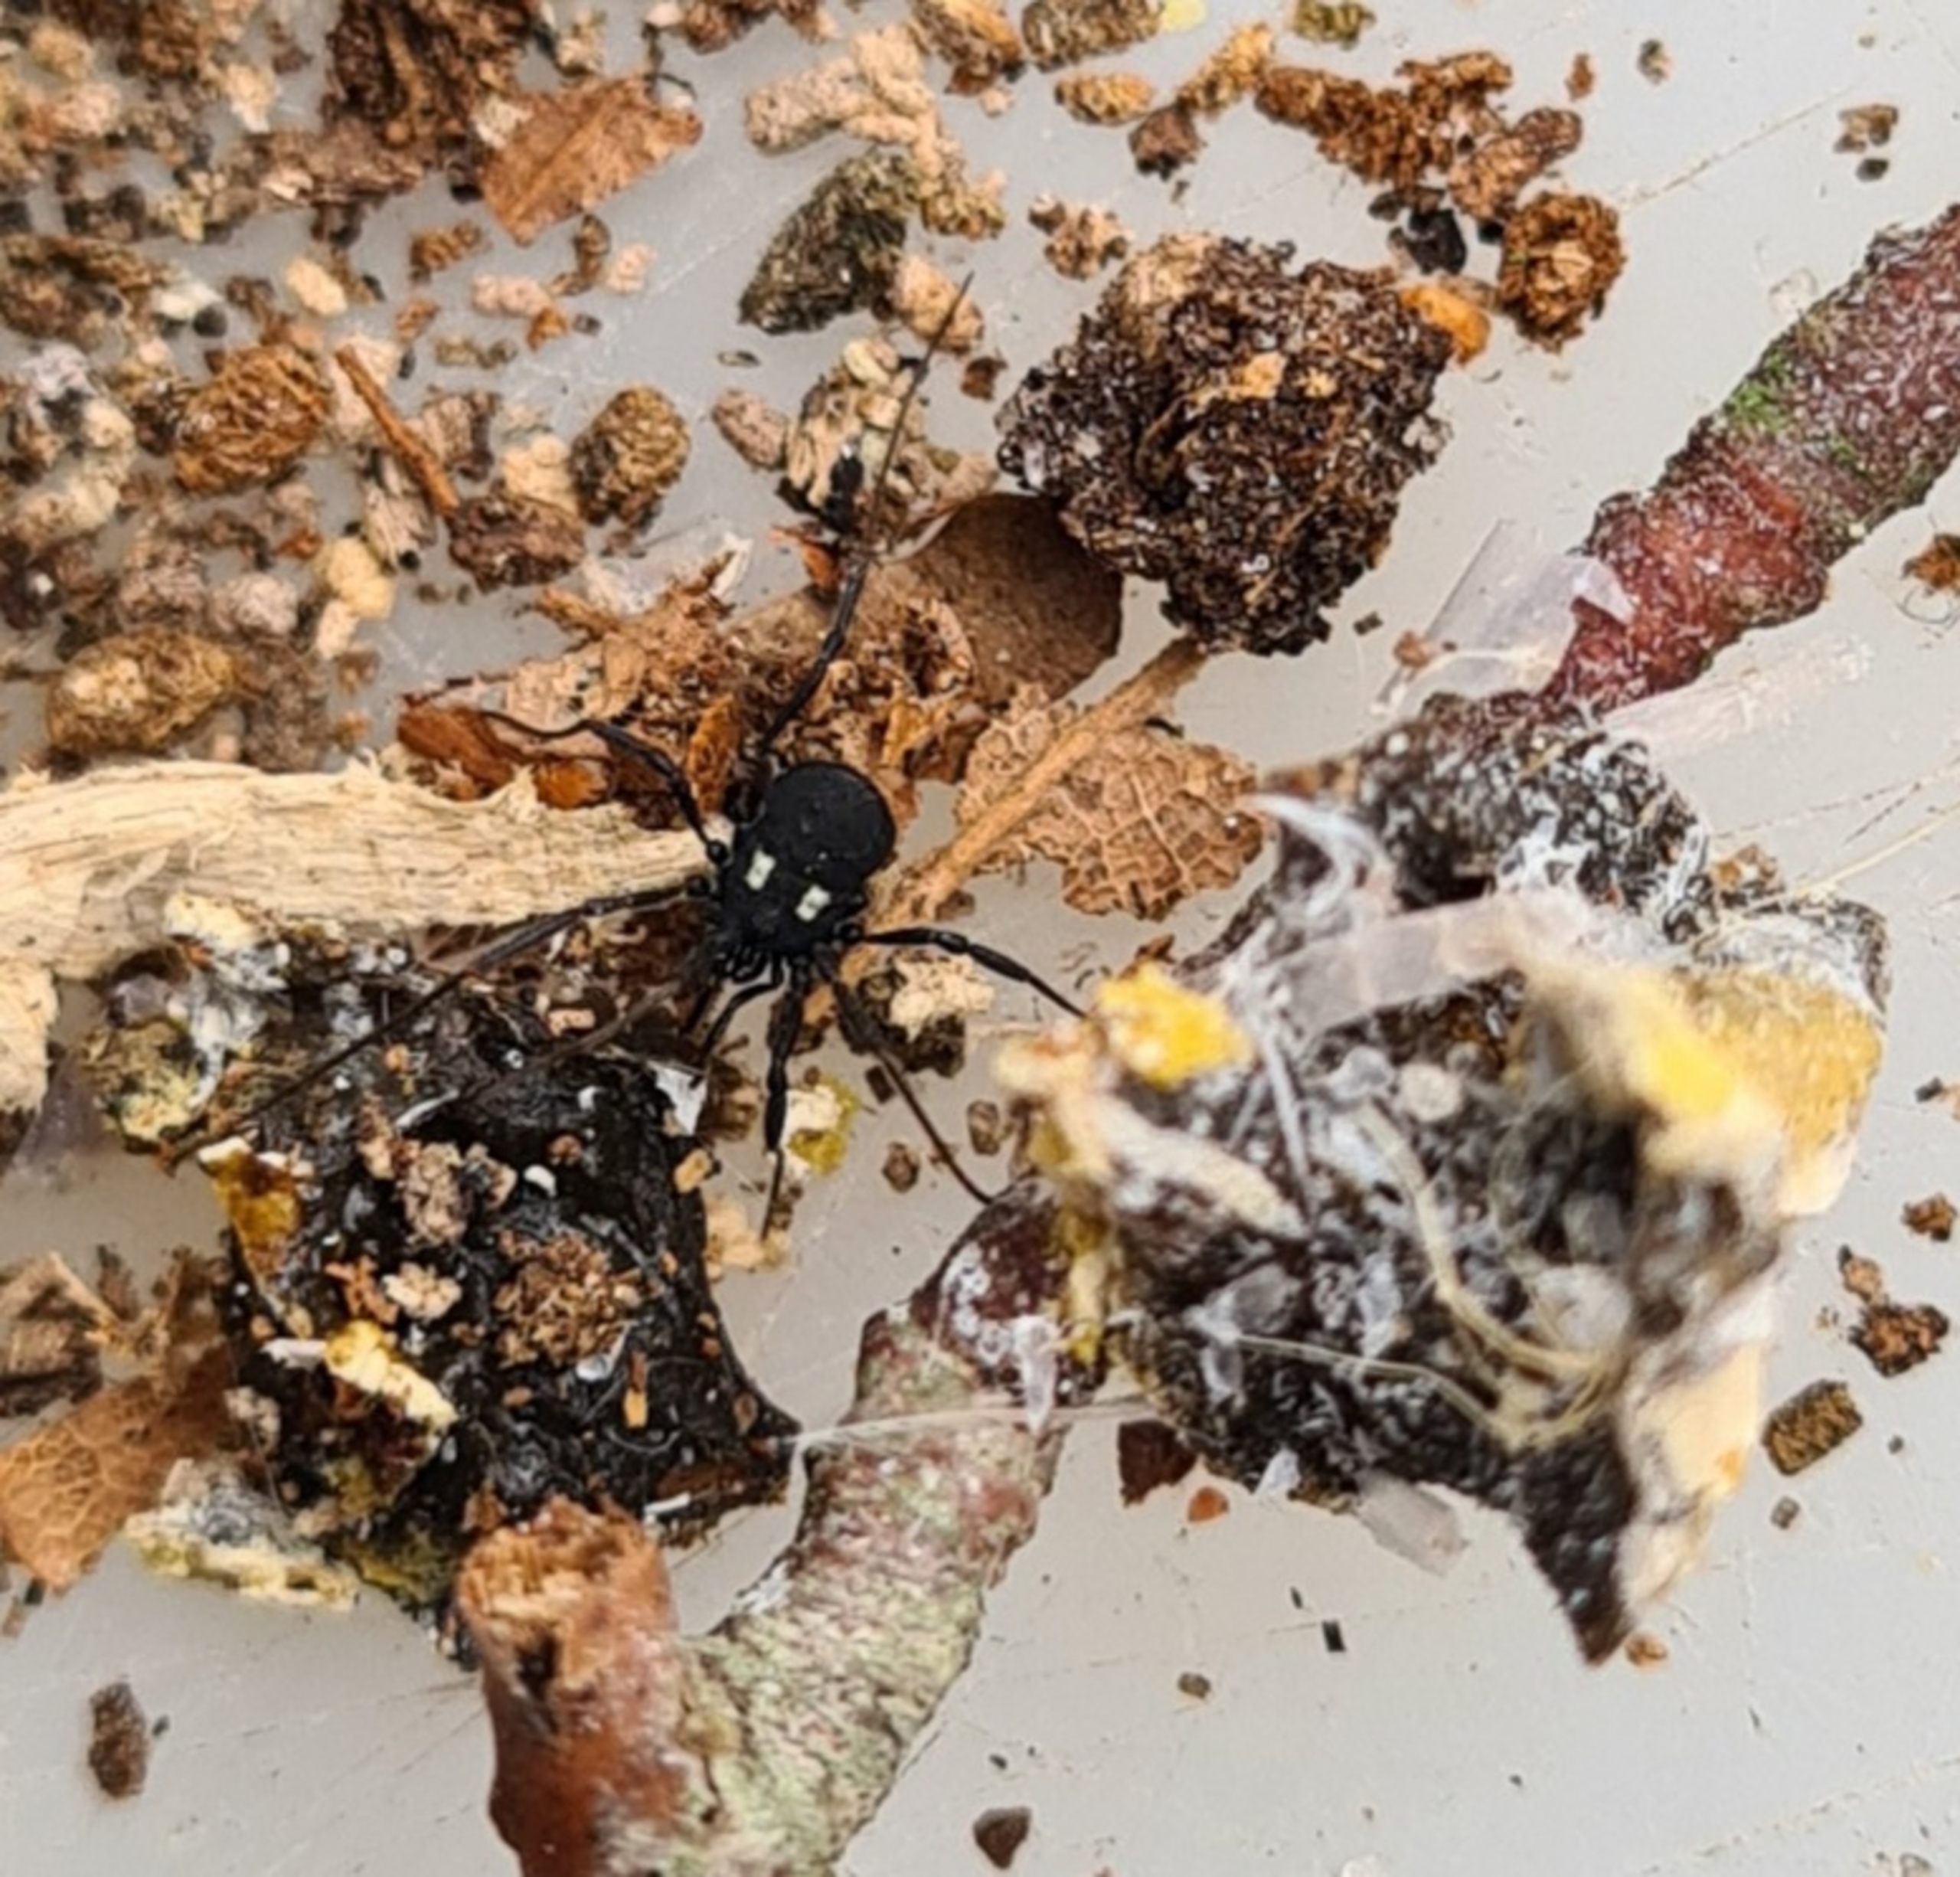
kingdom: Animalia
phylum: Arthropoda
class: Arachnida
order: Opiliones
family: Nemastomatidae
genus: Nemastoma
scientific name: Nemastoma lugubre
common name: Østlig dødningehovedmejer
